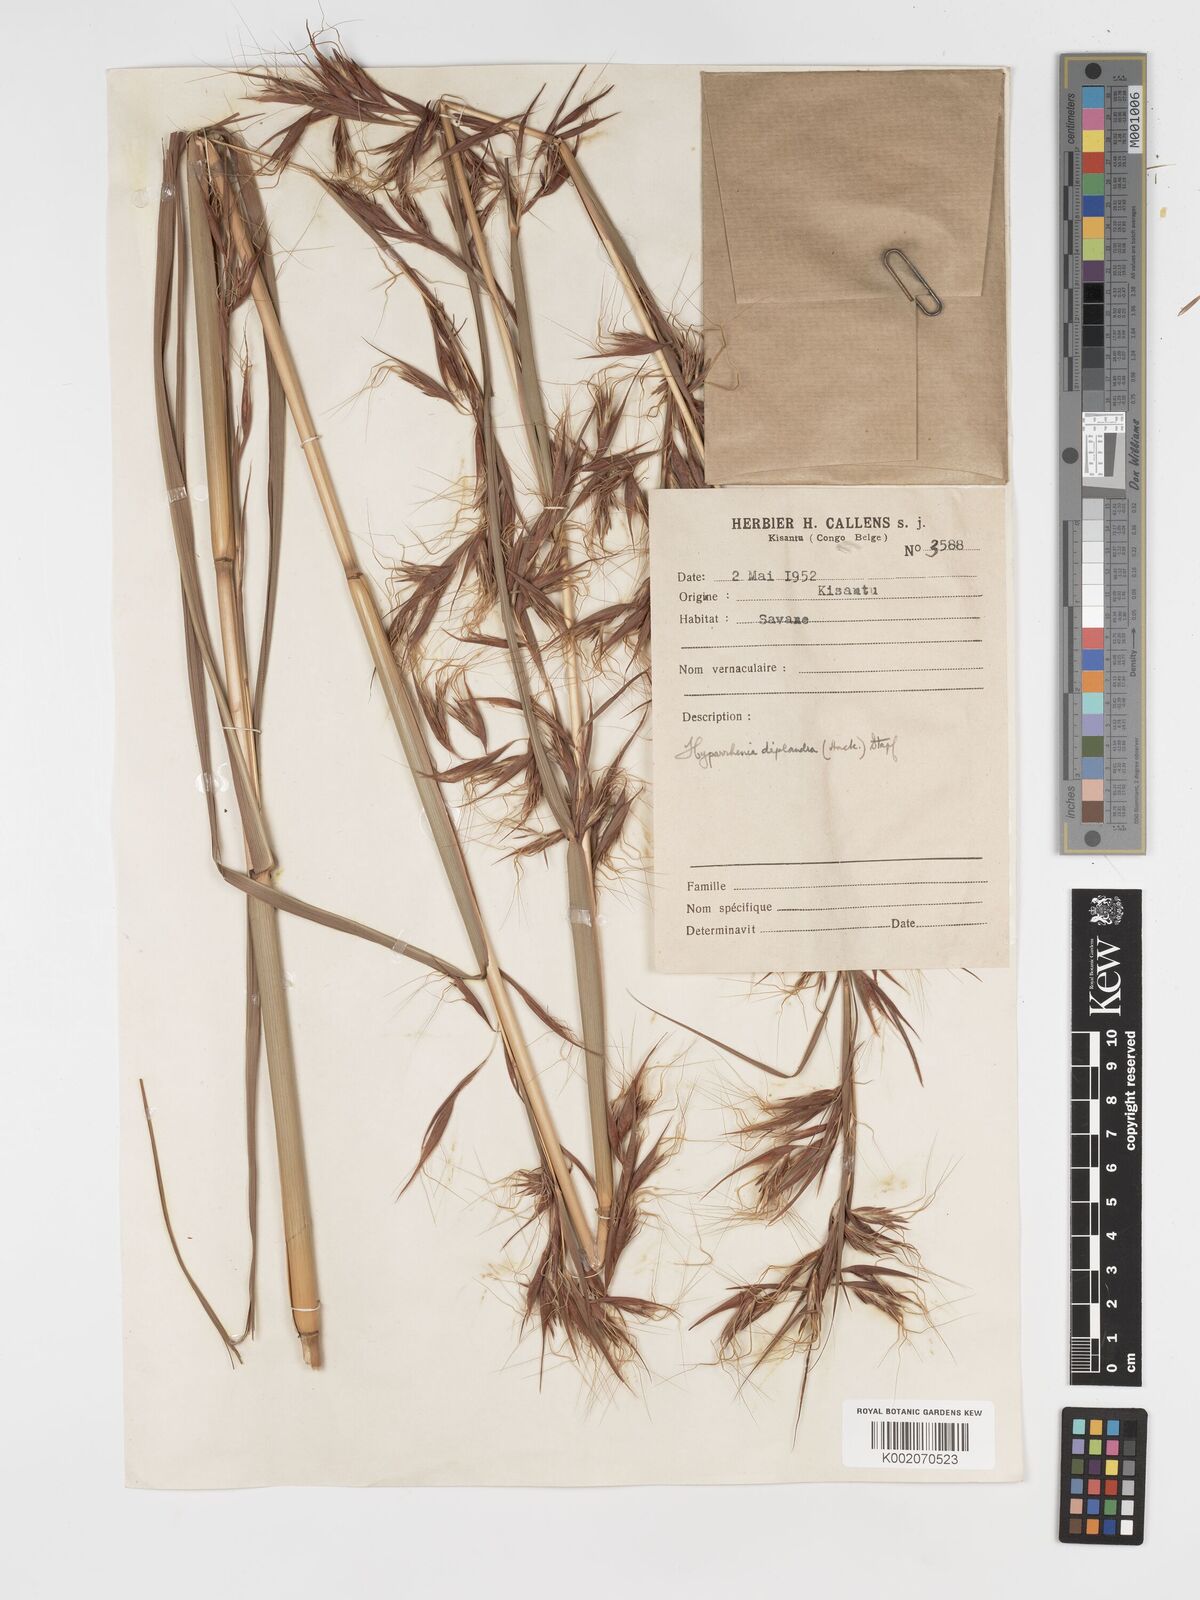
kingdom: Plantae
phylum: Tracheophyta
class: Liliopsida
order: Poales
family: Poaceae
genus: Hyparrhenia
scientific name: Hyparrhenia diplandra
